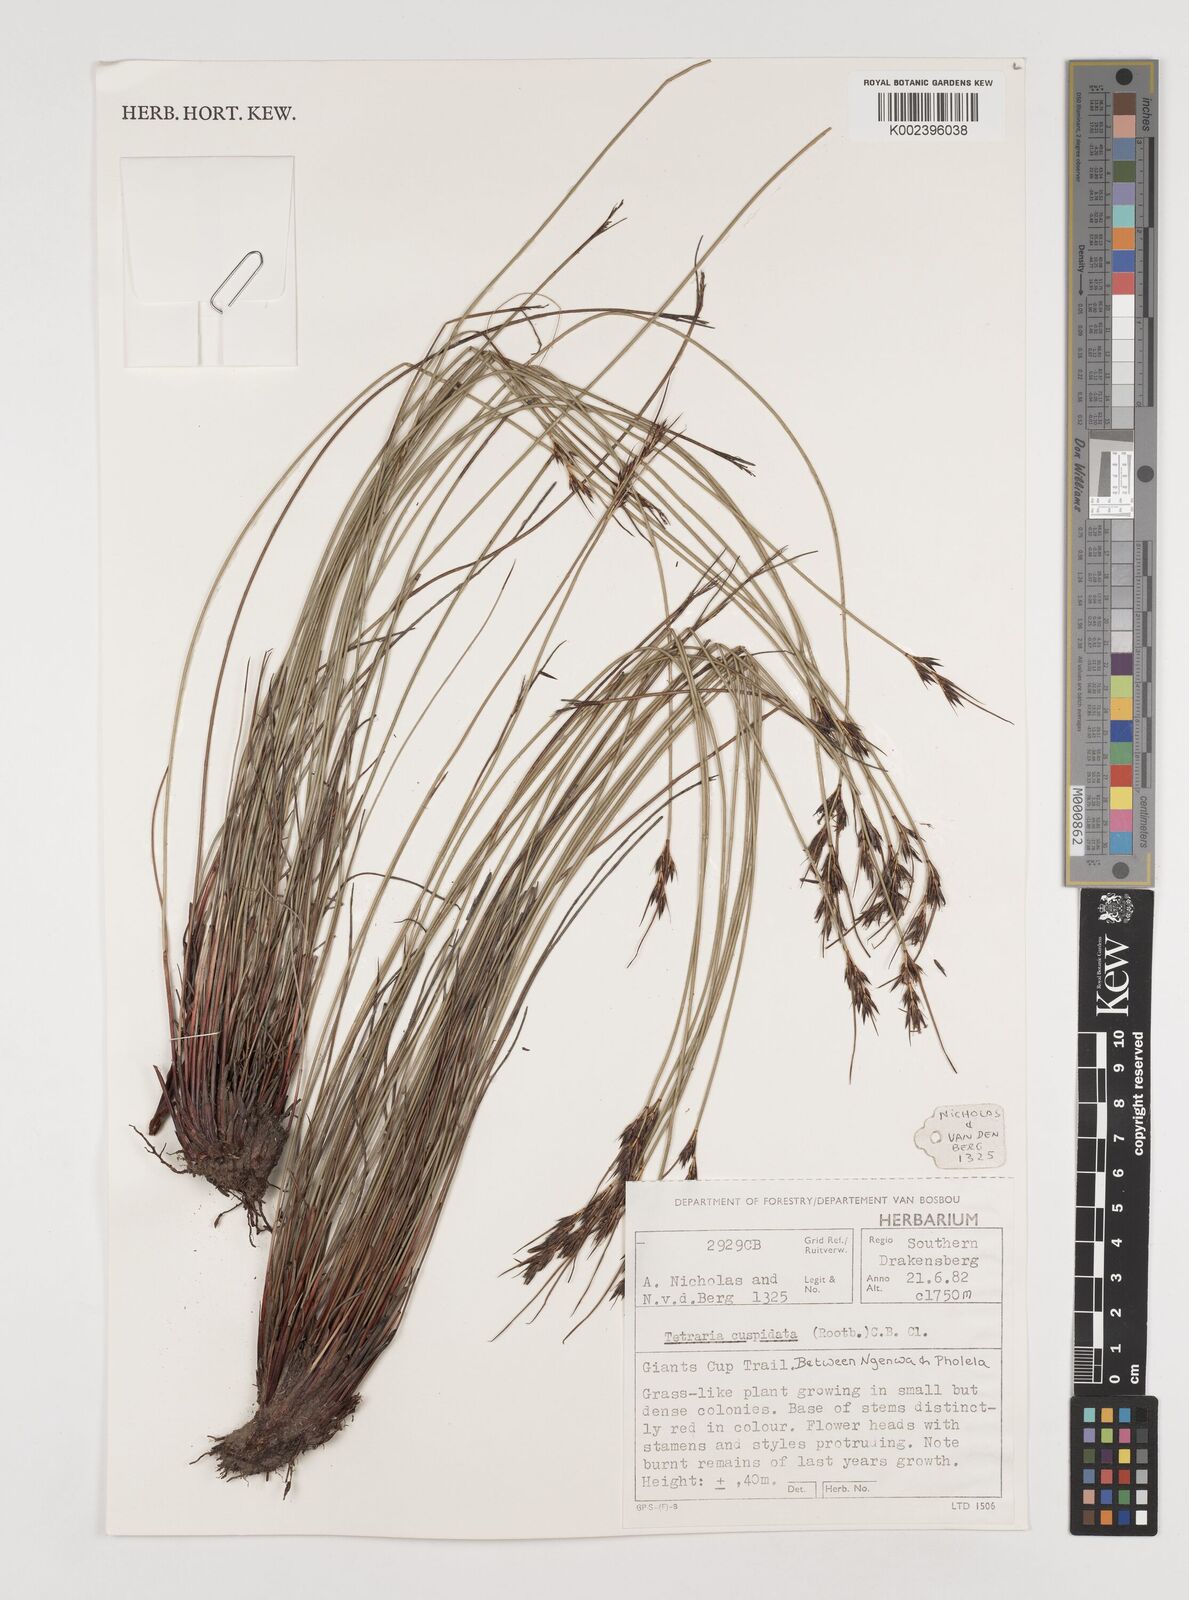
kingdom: Plantae
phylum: Tracheophyta
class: Liliopsida
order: Poales
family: Cyperaceae
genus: Schoenus
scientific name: Schoenus cuspidatus
